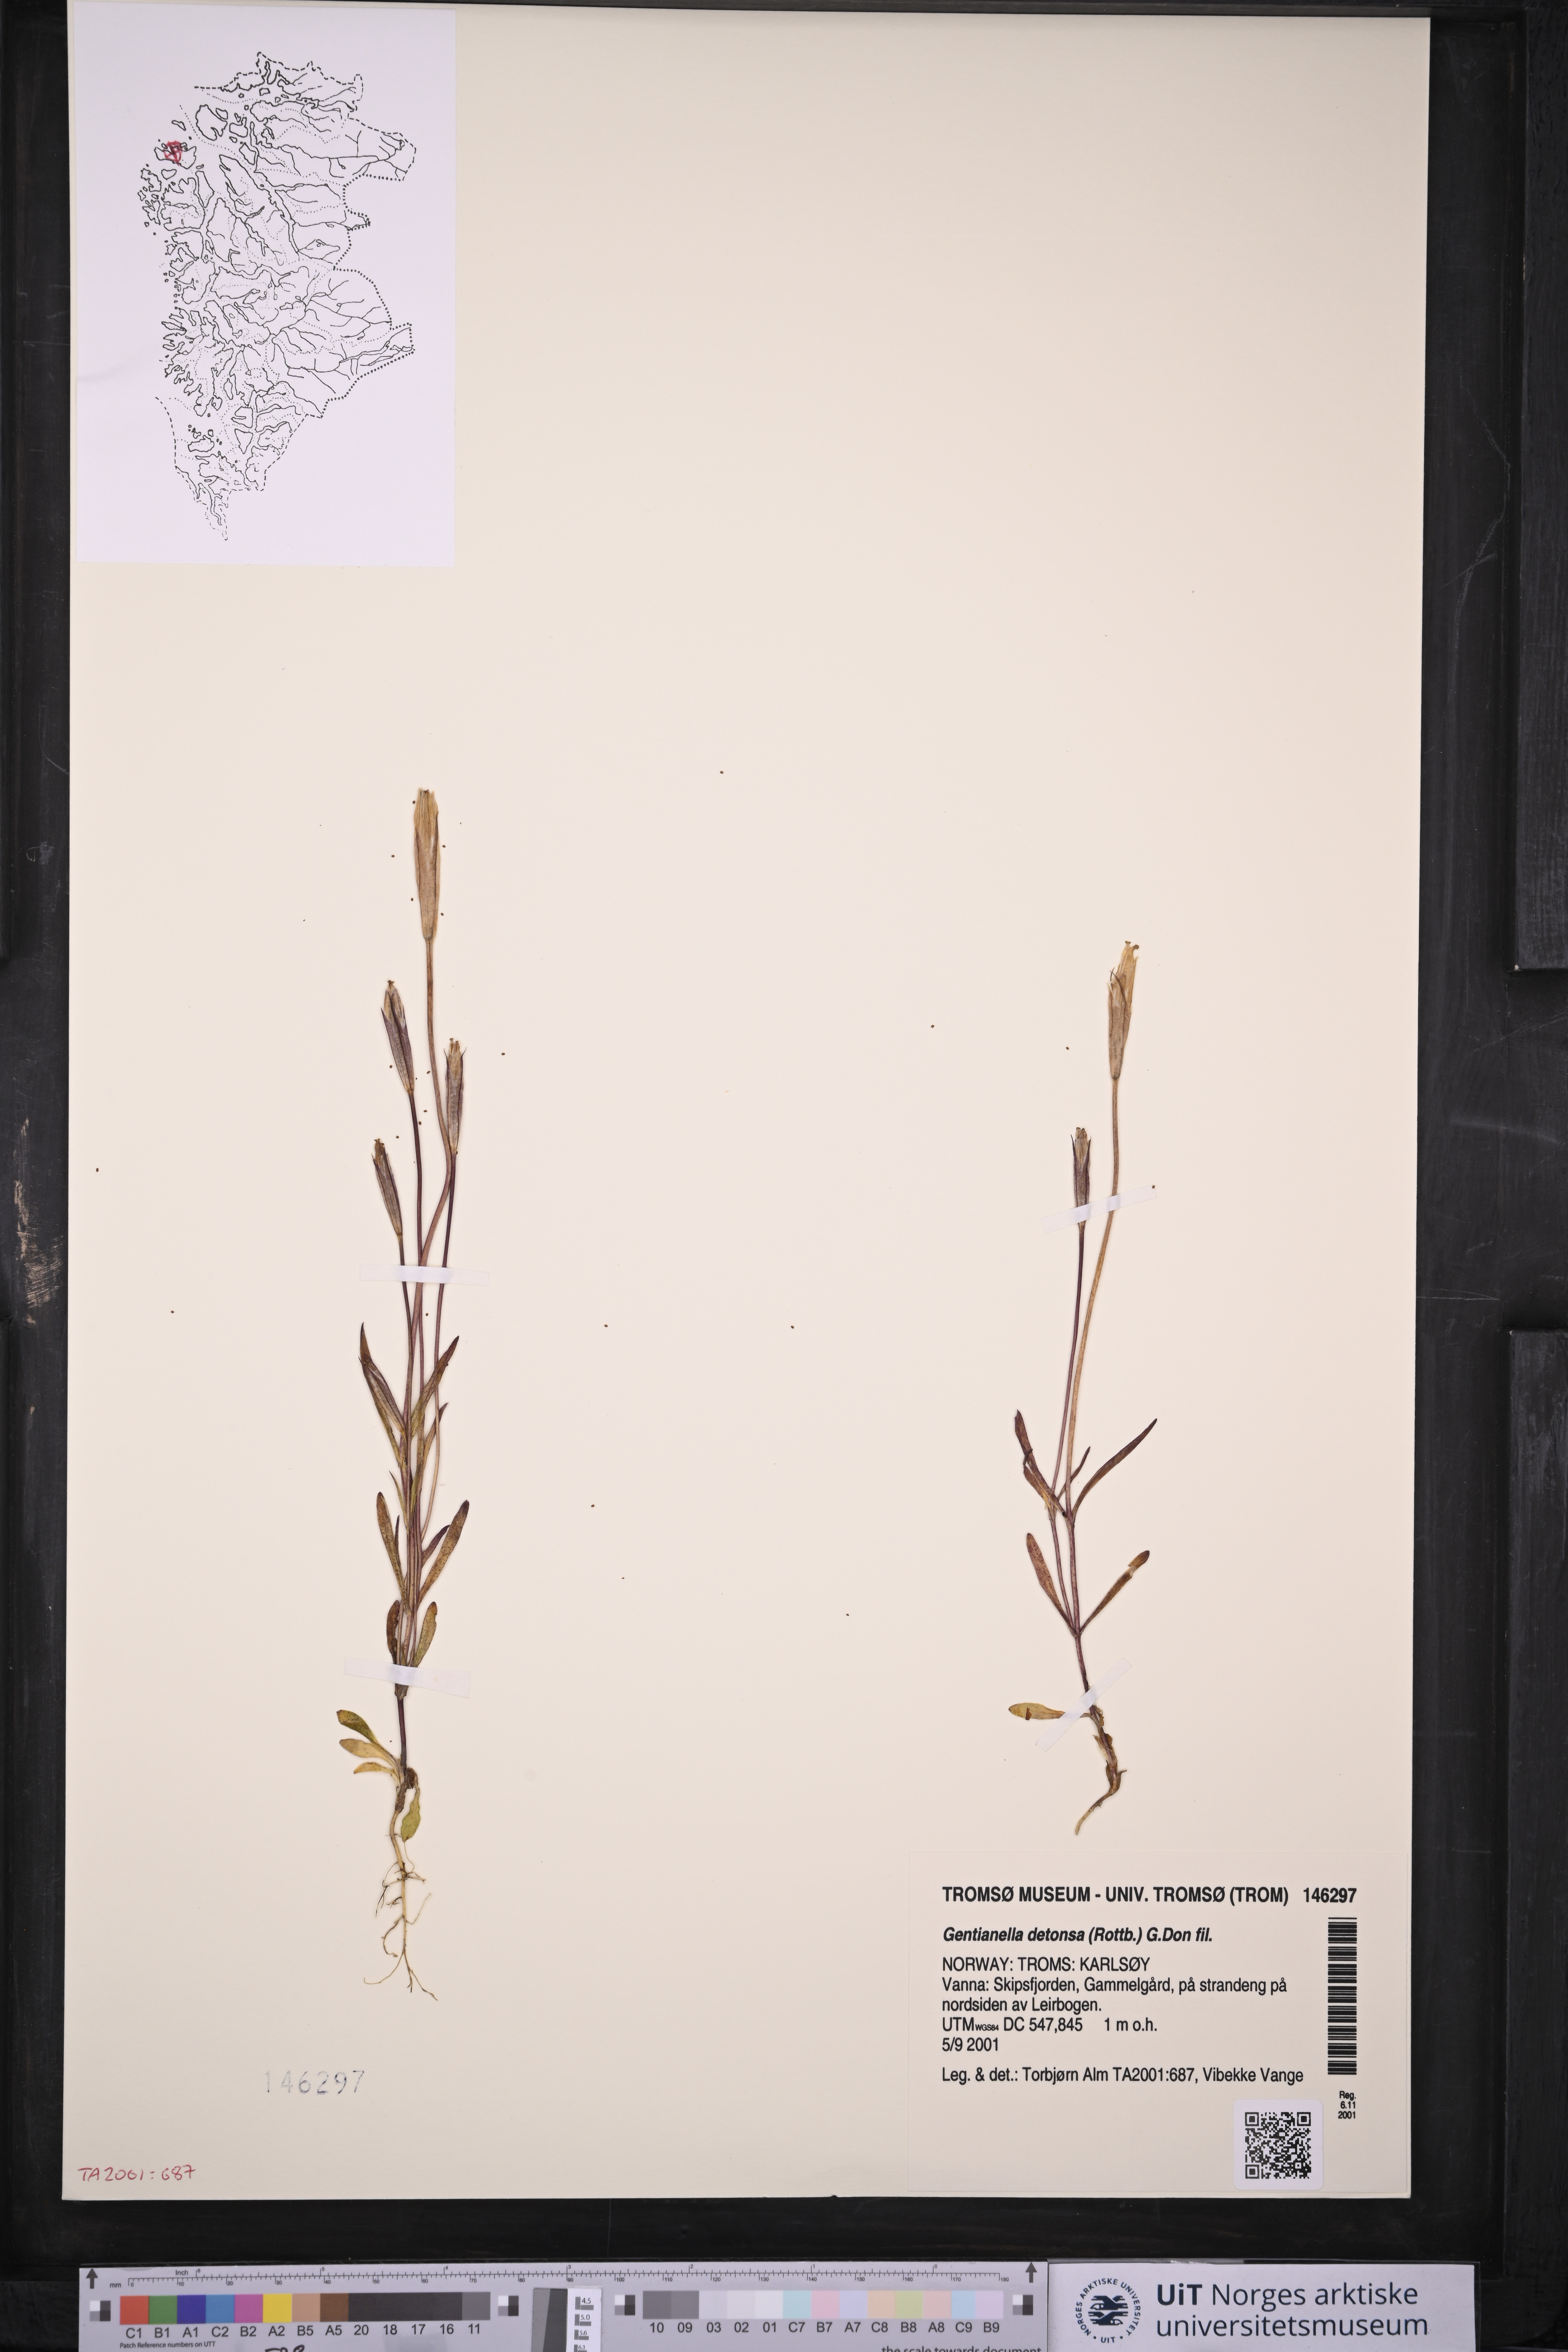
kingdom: Plantae
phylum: Tracheophyta
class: Magnoliopsida
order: Gentianales
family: Gentianaceae
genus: Gentianopsis
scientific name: Gentianopsis detonsa
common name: Fringed-gentian
